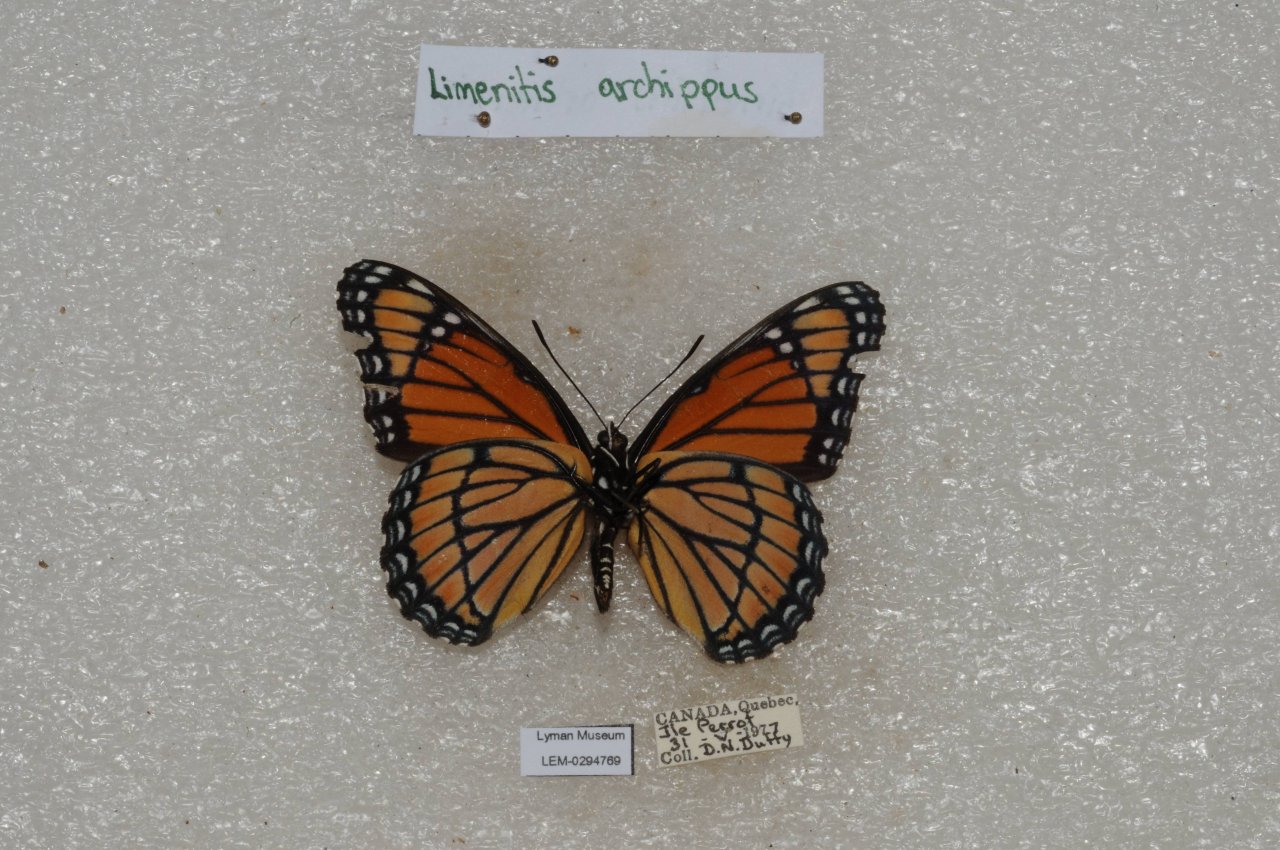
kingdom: Animalia
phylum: Arthropoda
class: Insecta
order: Lepidoptera
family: Nymphalidae
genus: Limenitis
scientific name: Limenitis archippus
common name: Viceroy
